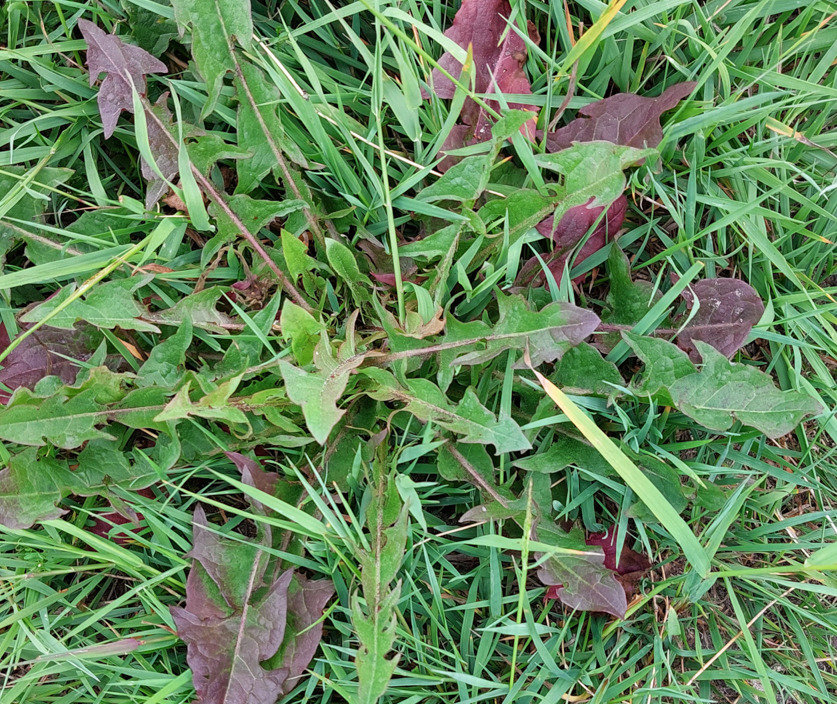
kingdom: Plantae
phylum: Tracheophyta
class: Magnoliopsida
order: Asterales
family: Asteraceae
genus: Taraxacum
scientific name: Taraxacum
